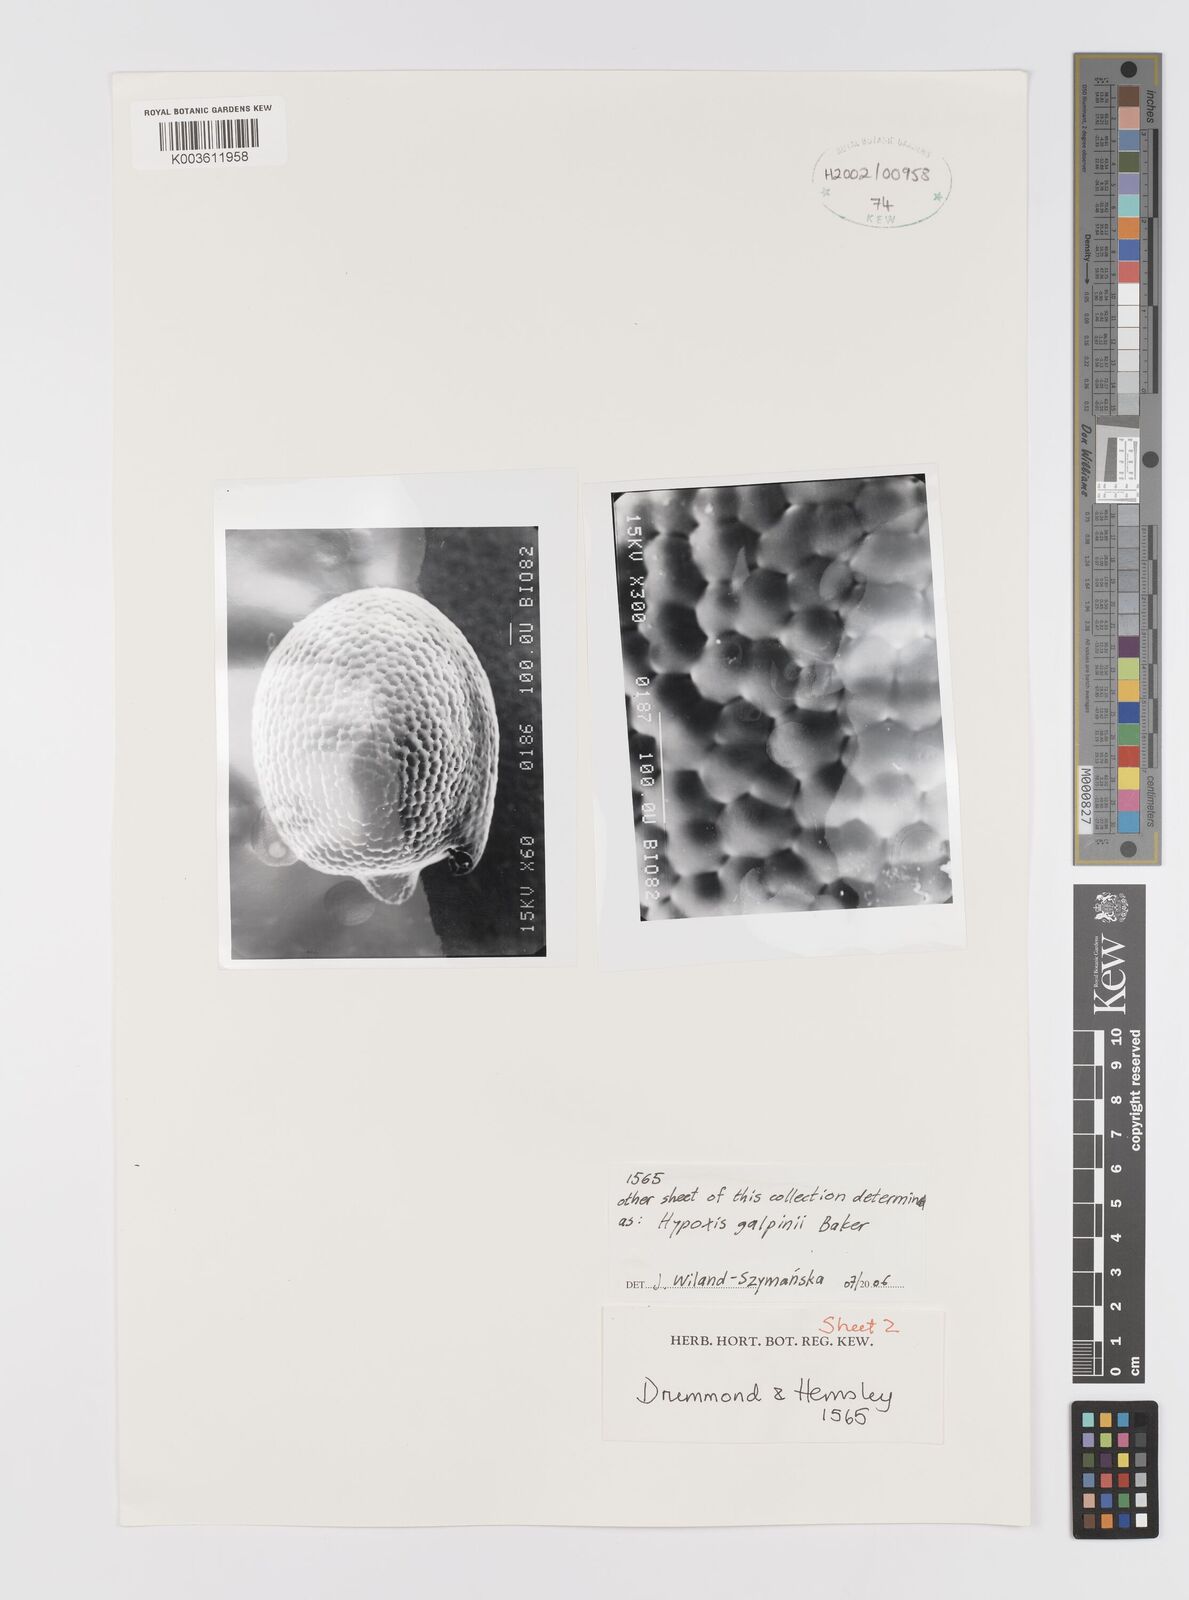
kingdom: Plantae
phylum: Tracheophyta
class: Liliopsida
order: Asparagales
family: Hypoxidaceae
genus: Hypoxis
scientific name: Hypoxis galpinii
